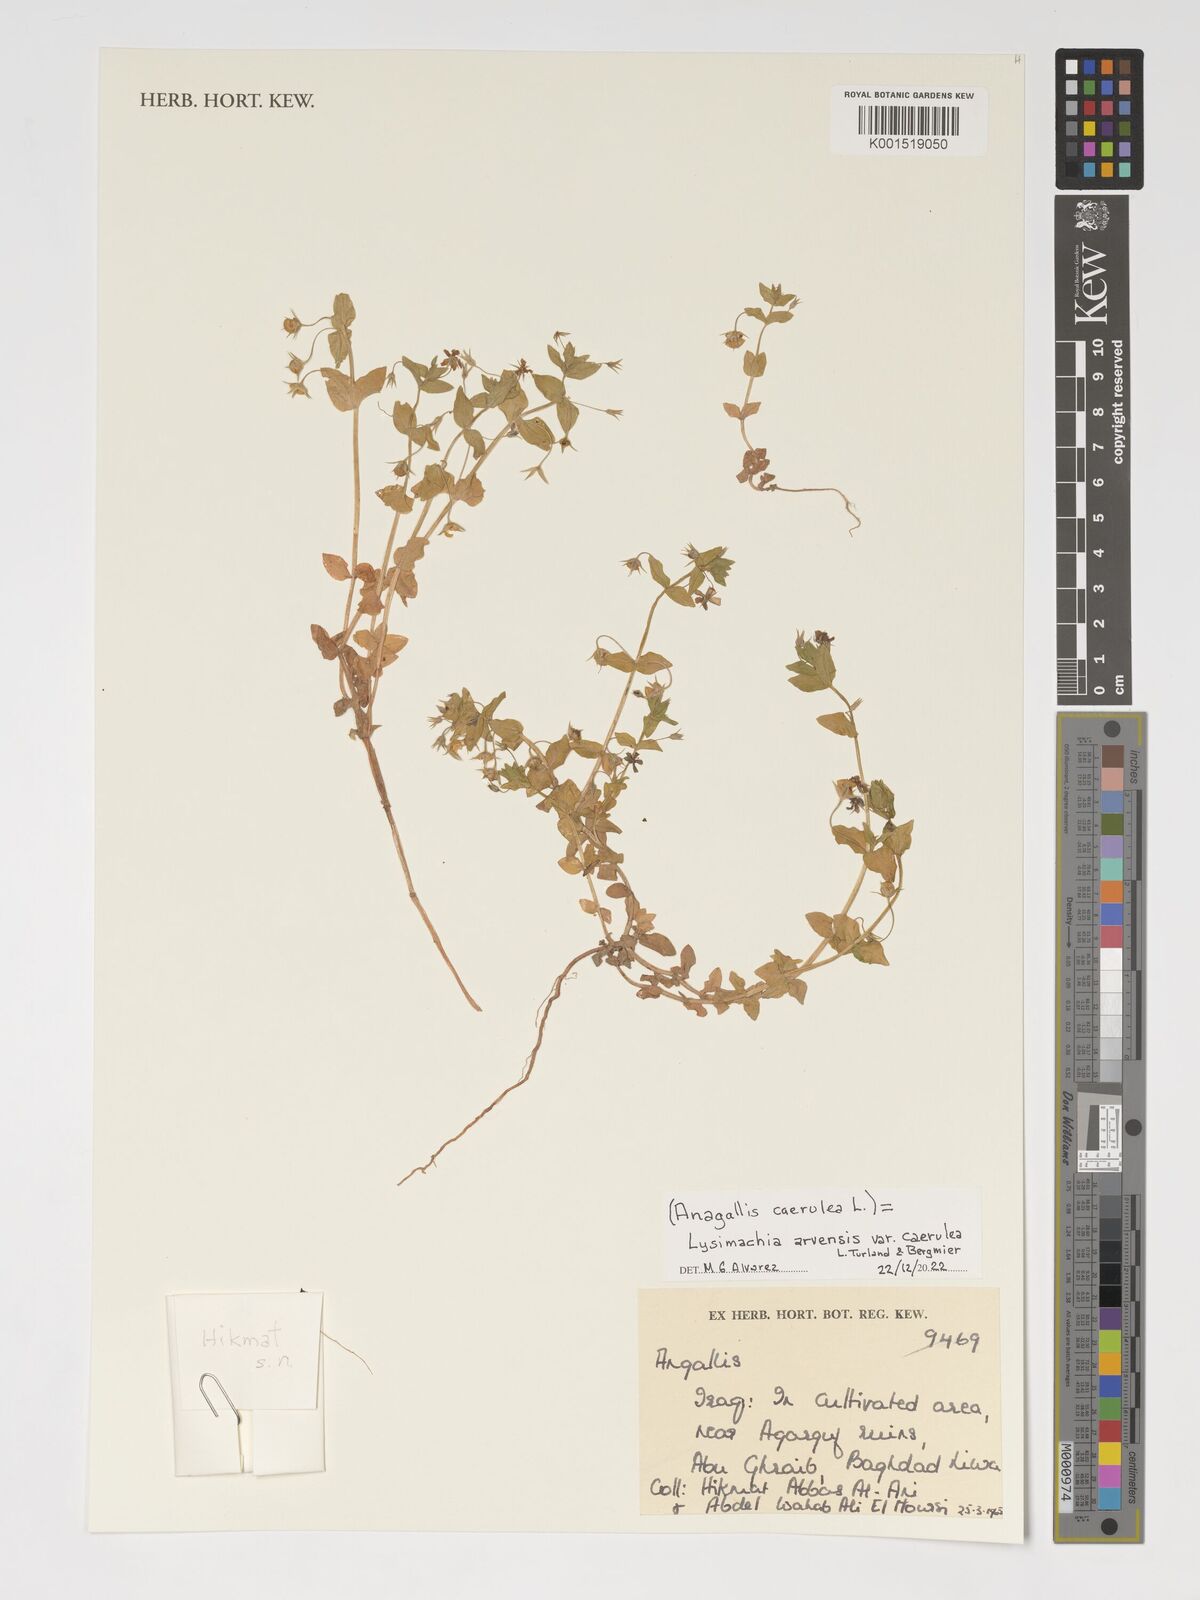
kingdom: Plantae
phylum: Tracheophyta
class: Magnoliopsida
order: Ericales
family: Primulaceae
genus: Lysimachia
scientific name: Lysimachia loeflingii
